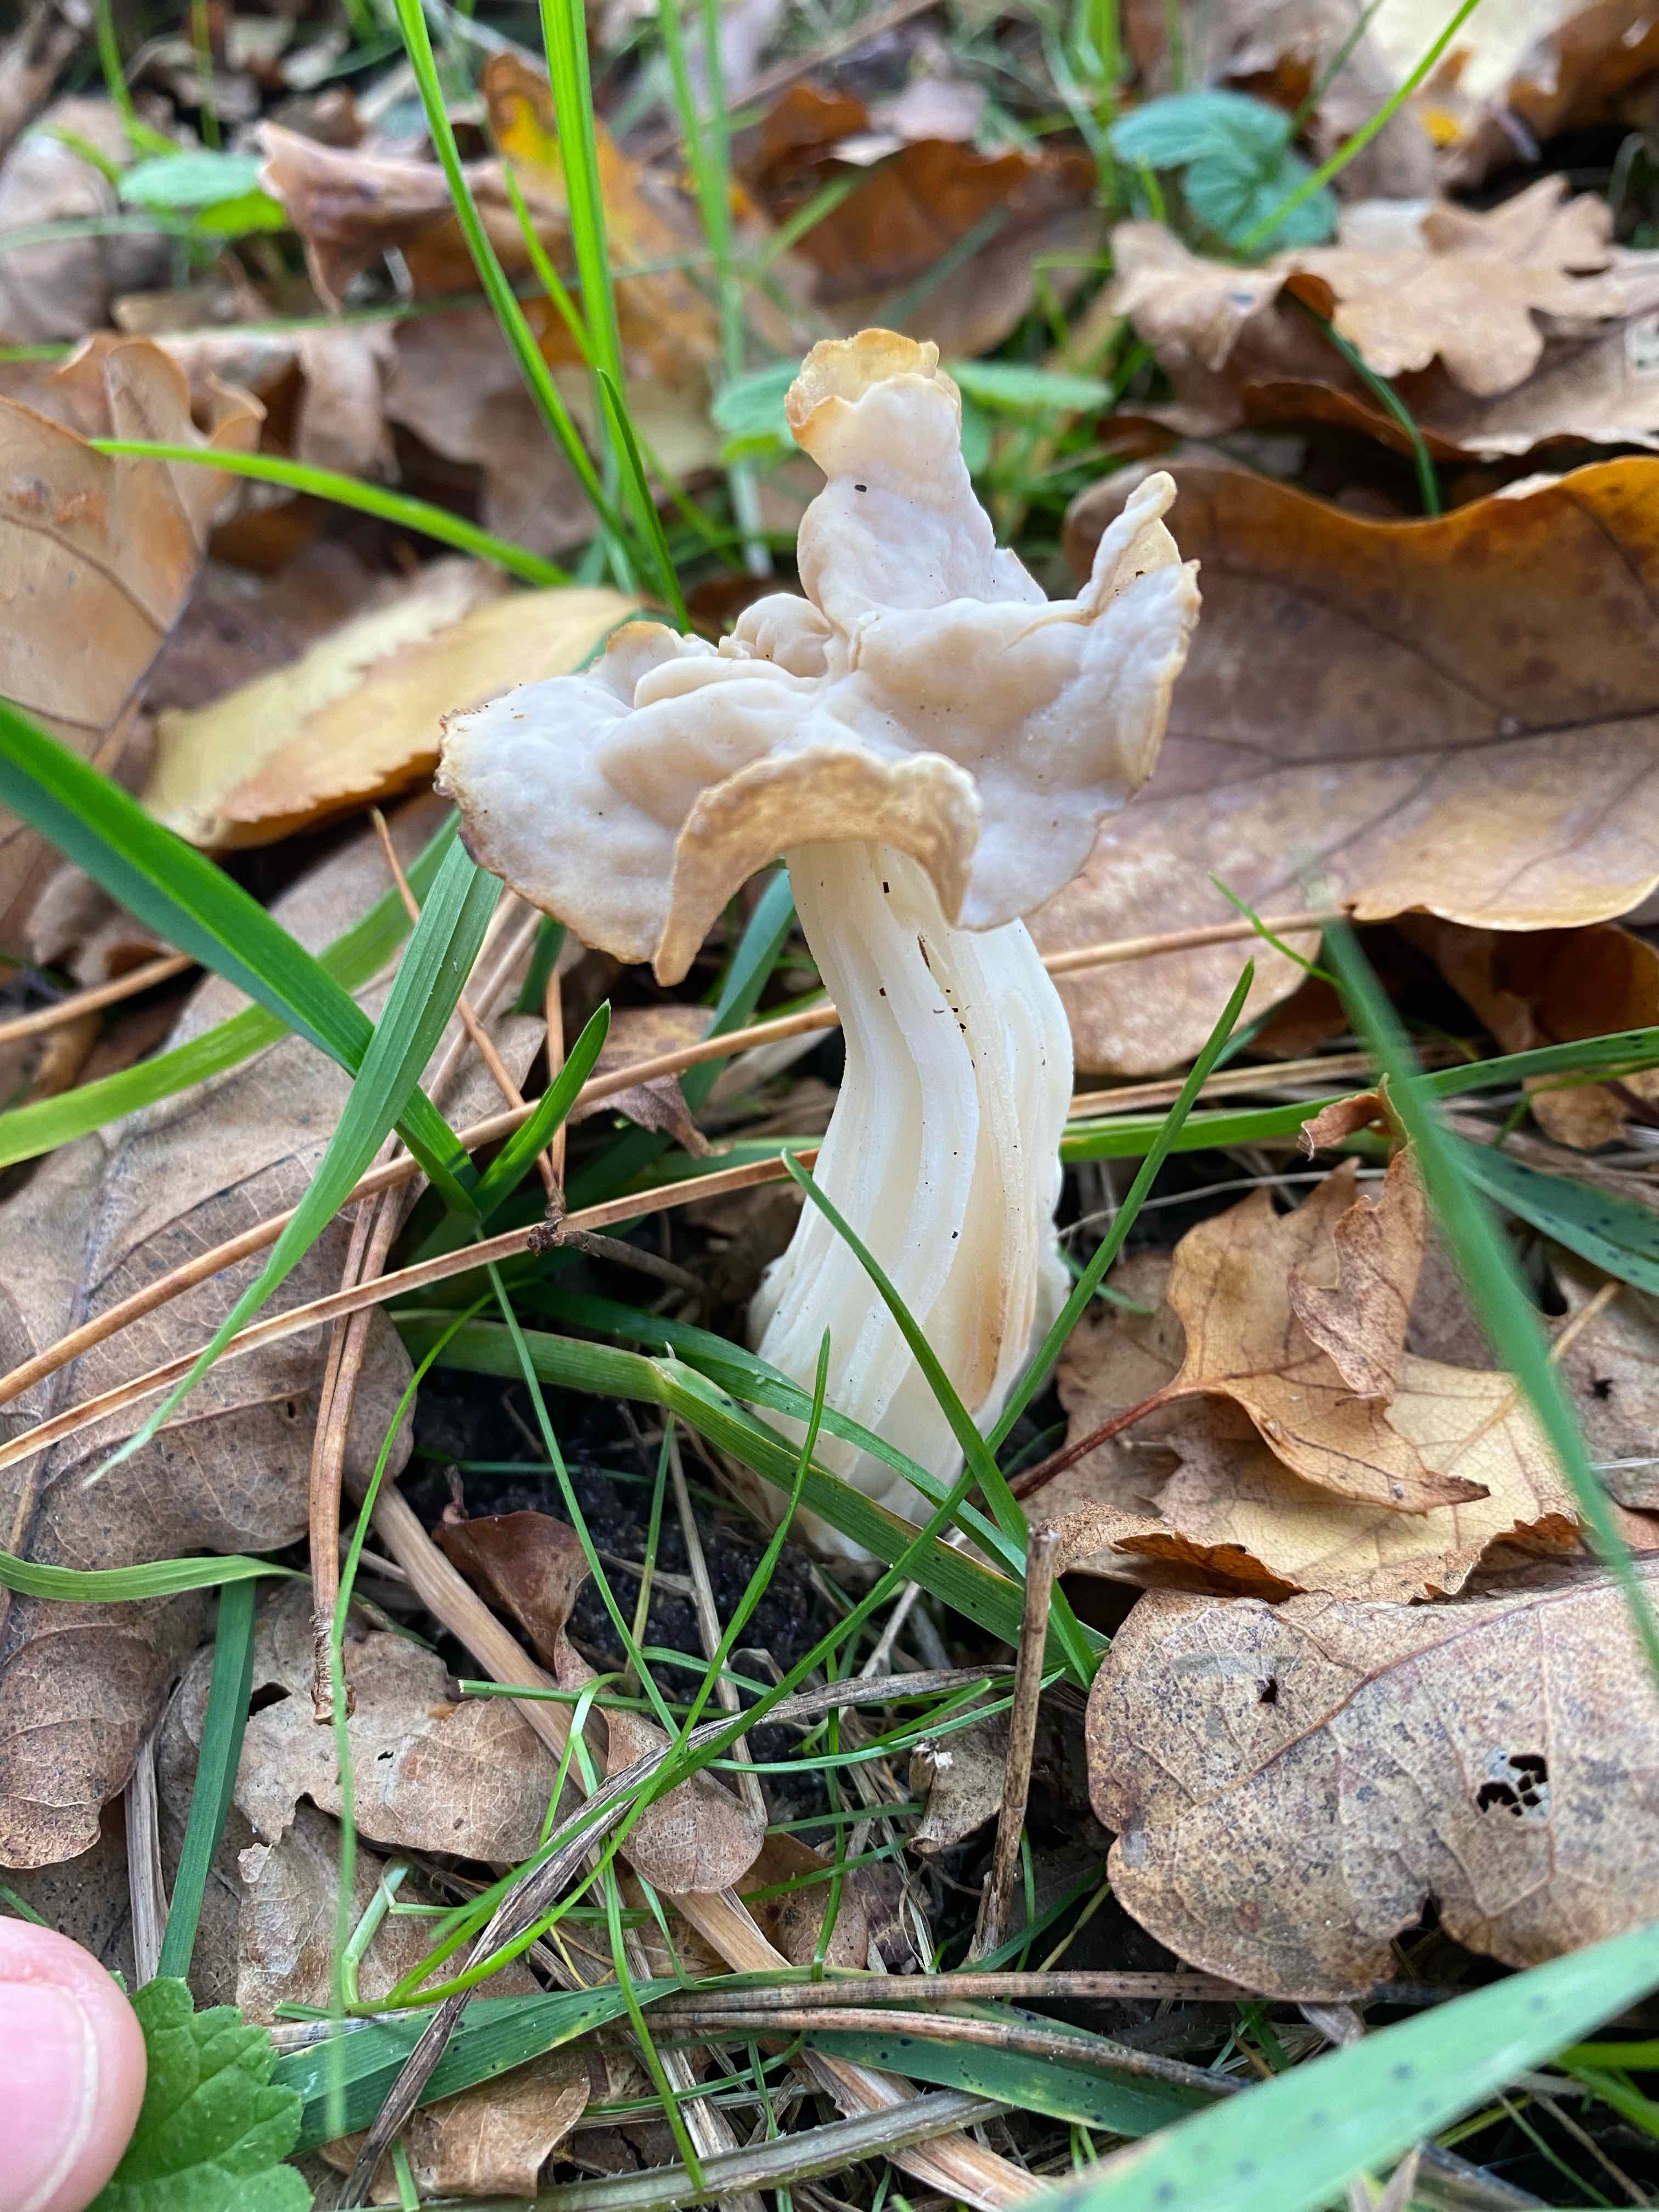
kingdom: Fungi
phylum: Ascomycota
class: Pezizomycetes
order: Pezizales
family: Helvellaceae
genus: Helvella
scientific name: Helvella crispa
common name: kruset foldhat
